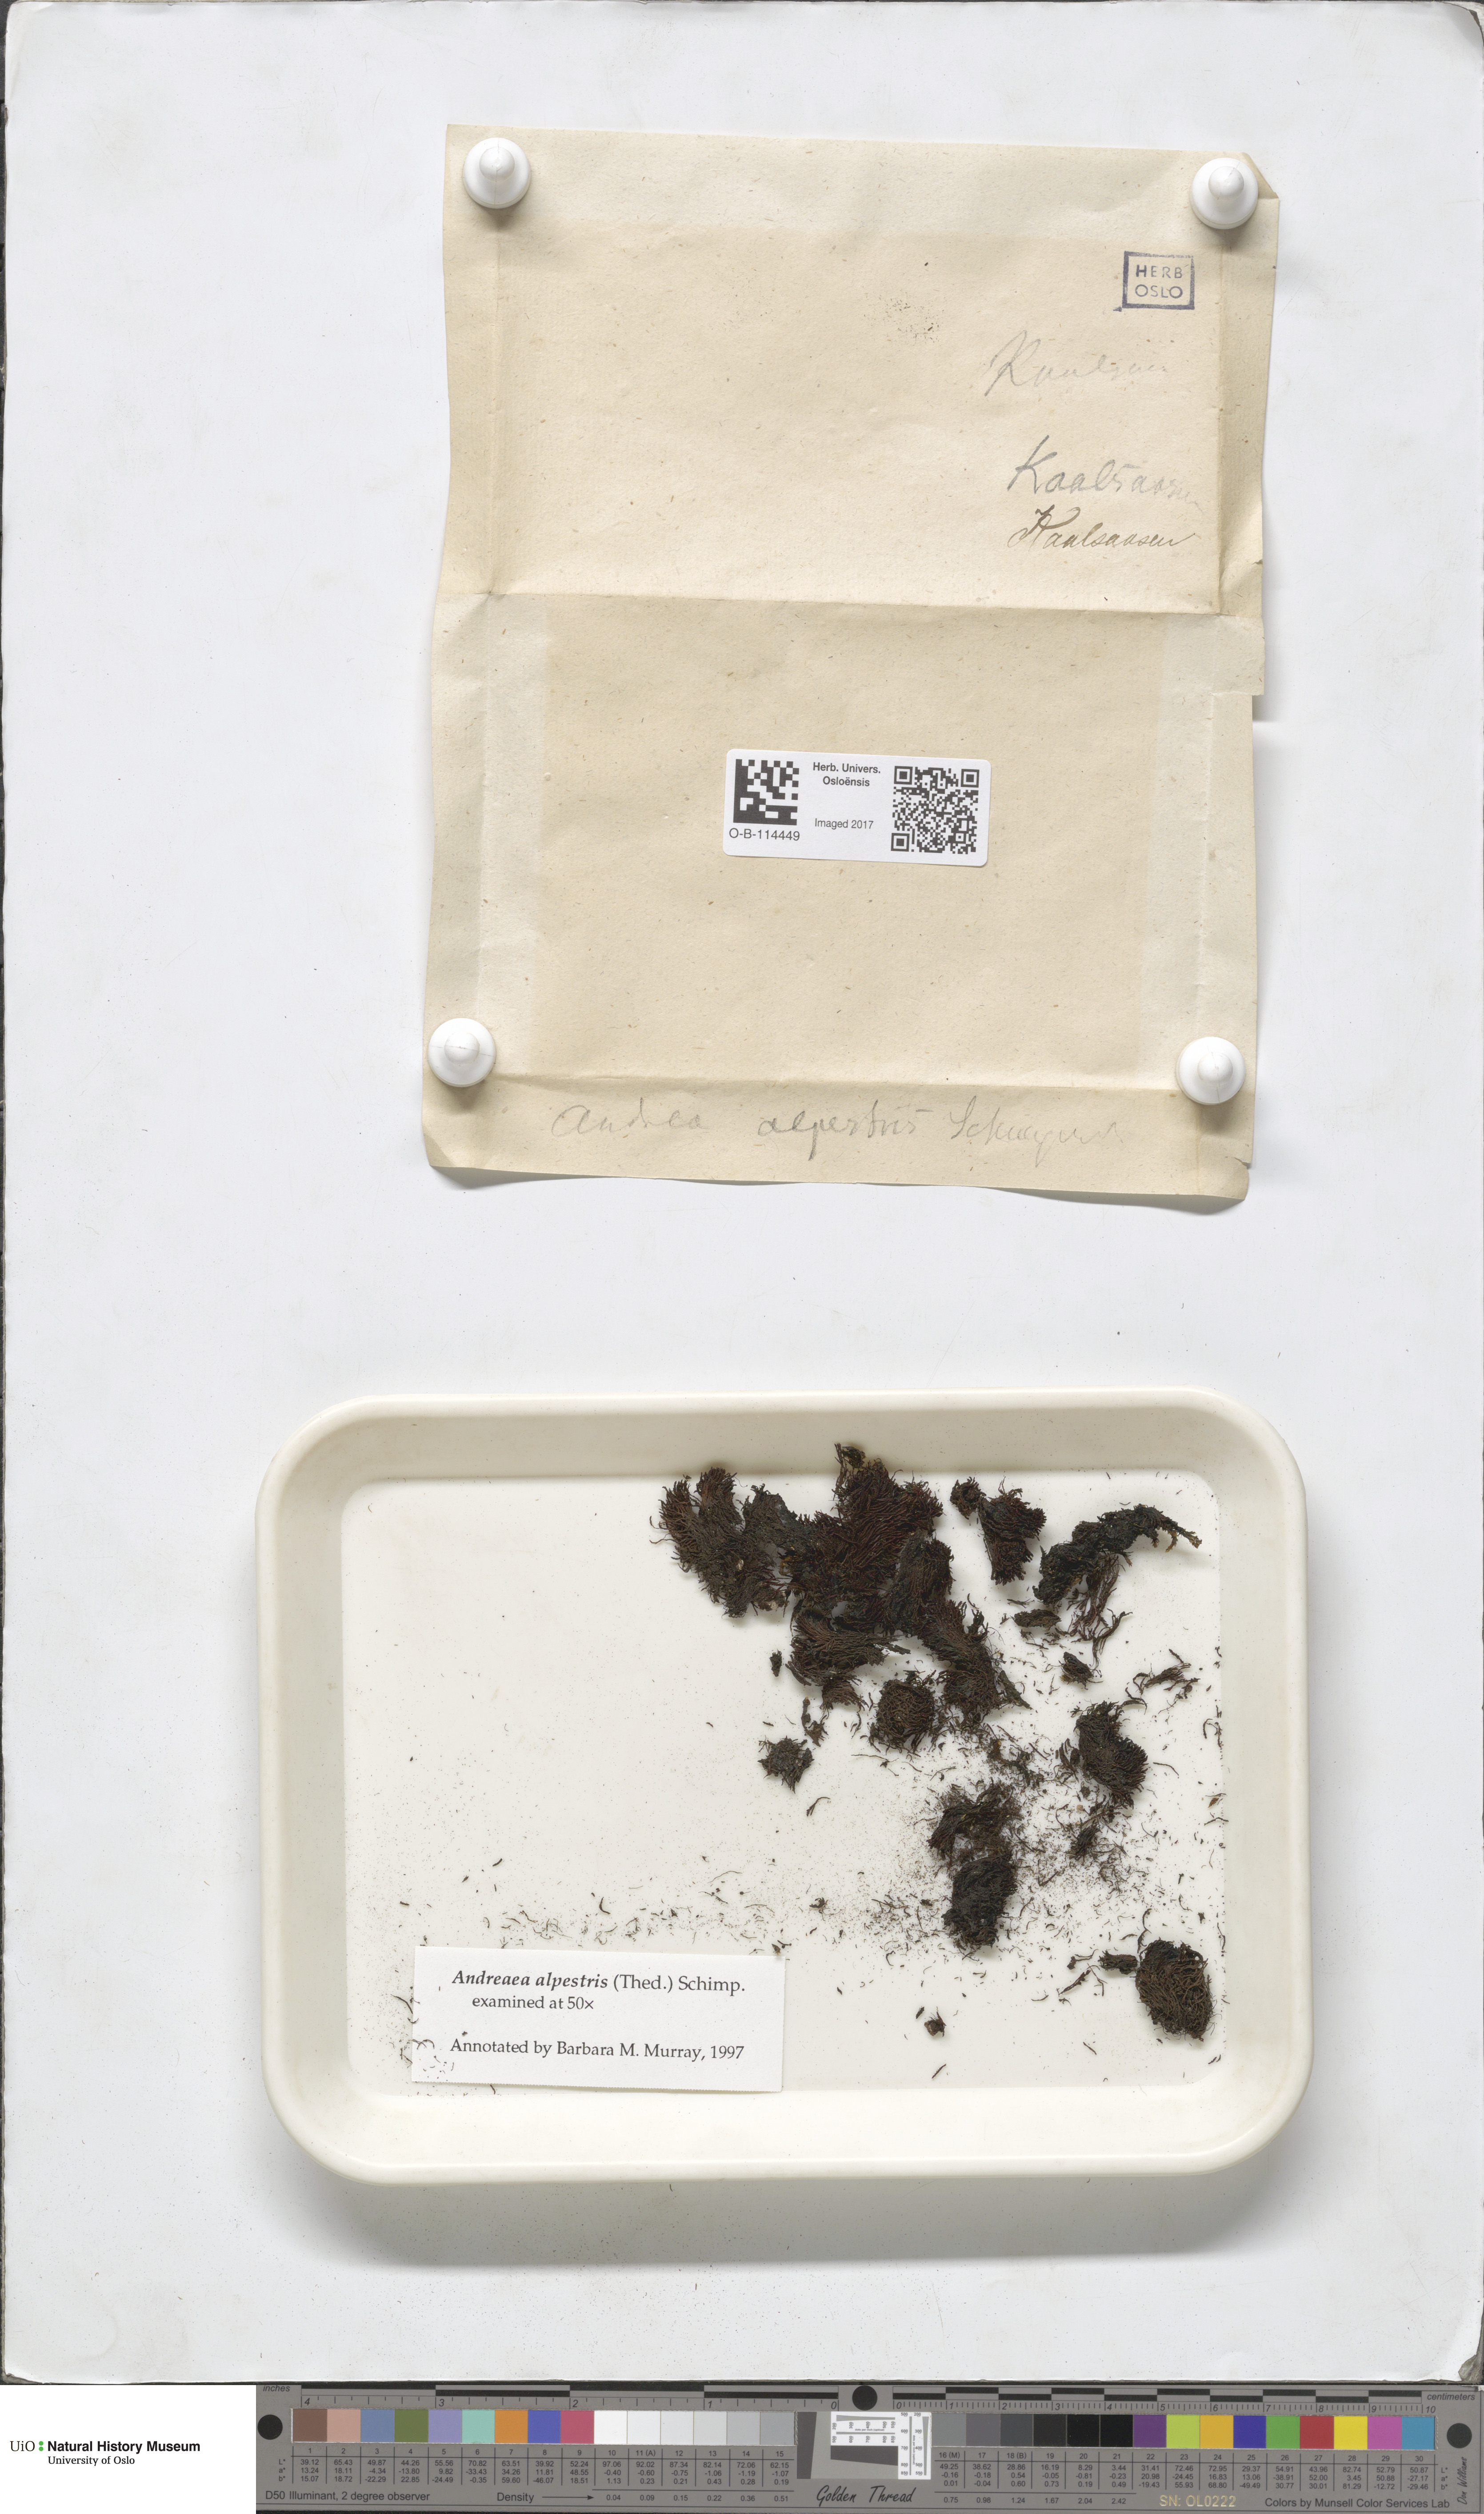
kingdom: Plantae
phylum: Bryophyta
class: Andreaeopsida
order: Andreaeales
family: Andreaeaceae
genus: Andreaea
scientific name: Andreaea alpestris
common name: Slender rock-moss
